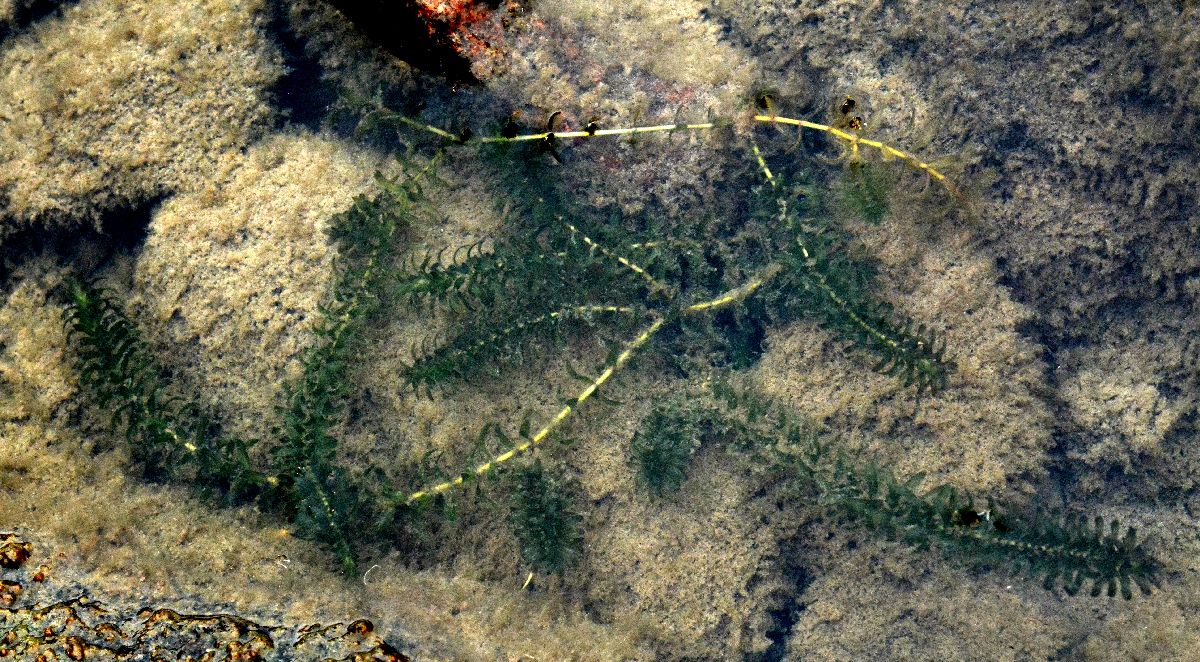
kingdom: Plantae
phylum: Tracheophyta
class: Liliopsida
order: Alismatales
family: Hydrocharitaceae
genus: Elodea
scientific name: Elodea canadensis
